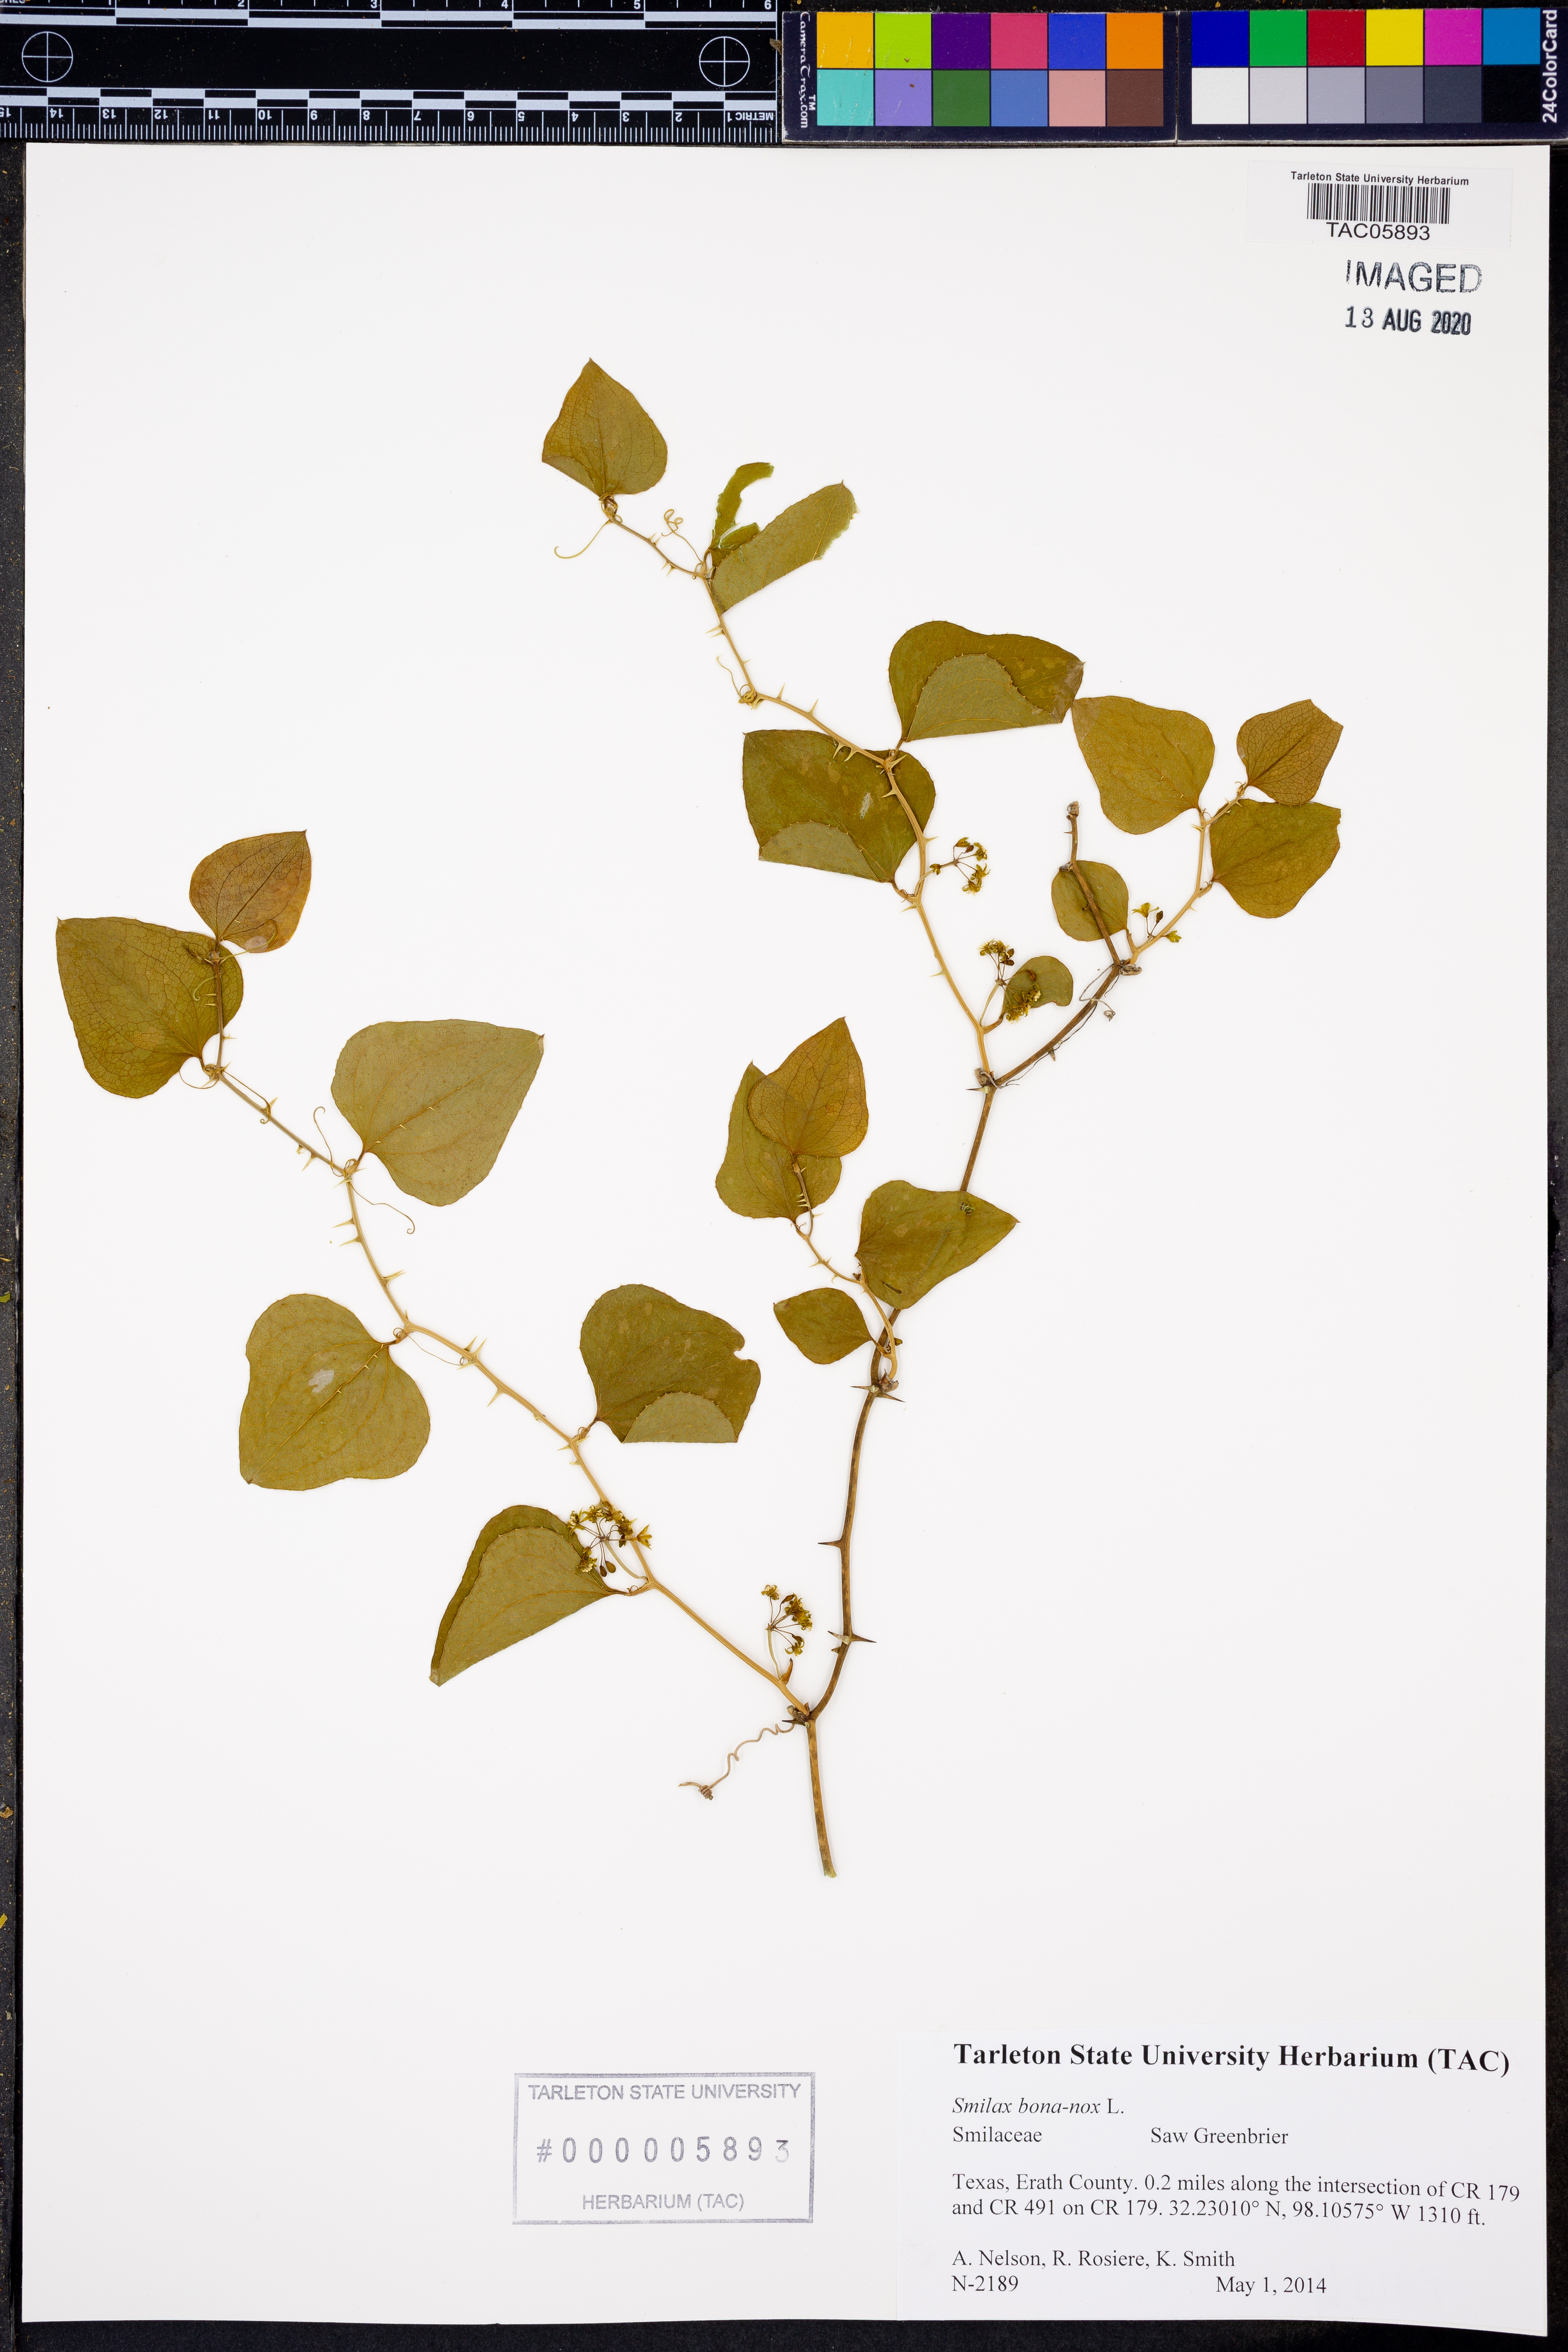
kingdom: Plantae
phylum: Tracheophyta
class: Liliopsida
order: Liliales
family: Smilacaceae
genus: Smilax
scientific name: Smilax bona-nox
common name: Catbrier
